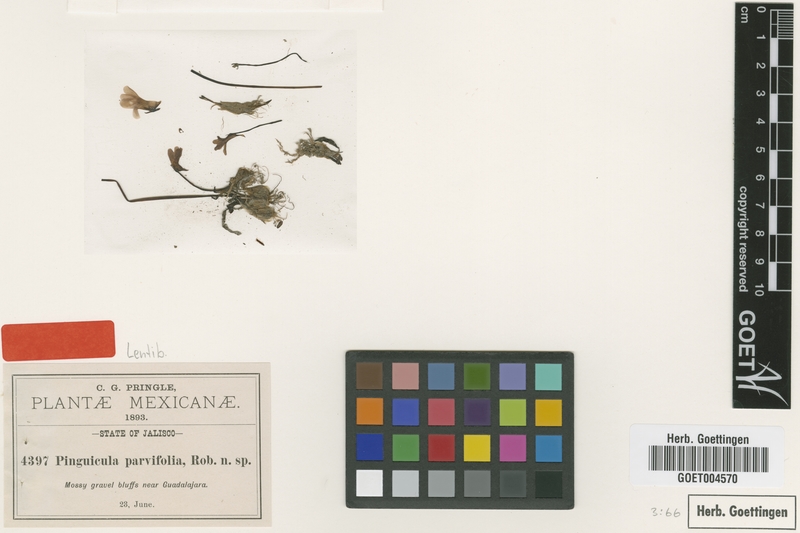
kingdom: Plantae
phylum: Tracheophyta
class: Magnoliopsida
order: Lamiales
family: Lentibulariaceae
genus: Pinguicula
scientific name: Pinguicula parvifolia
